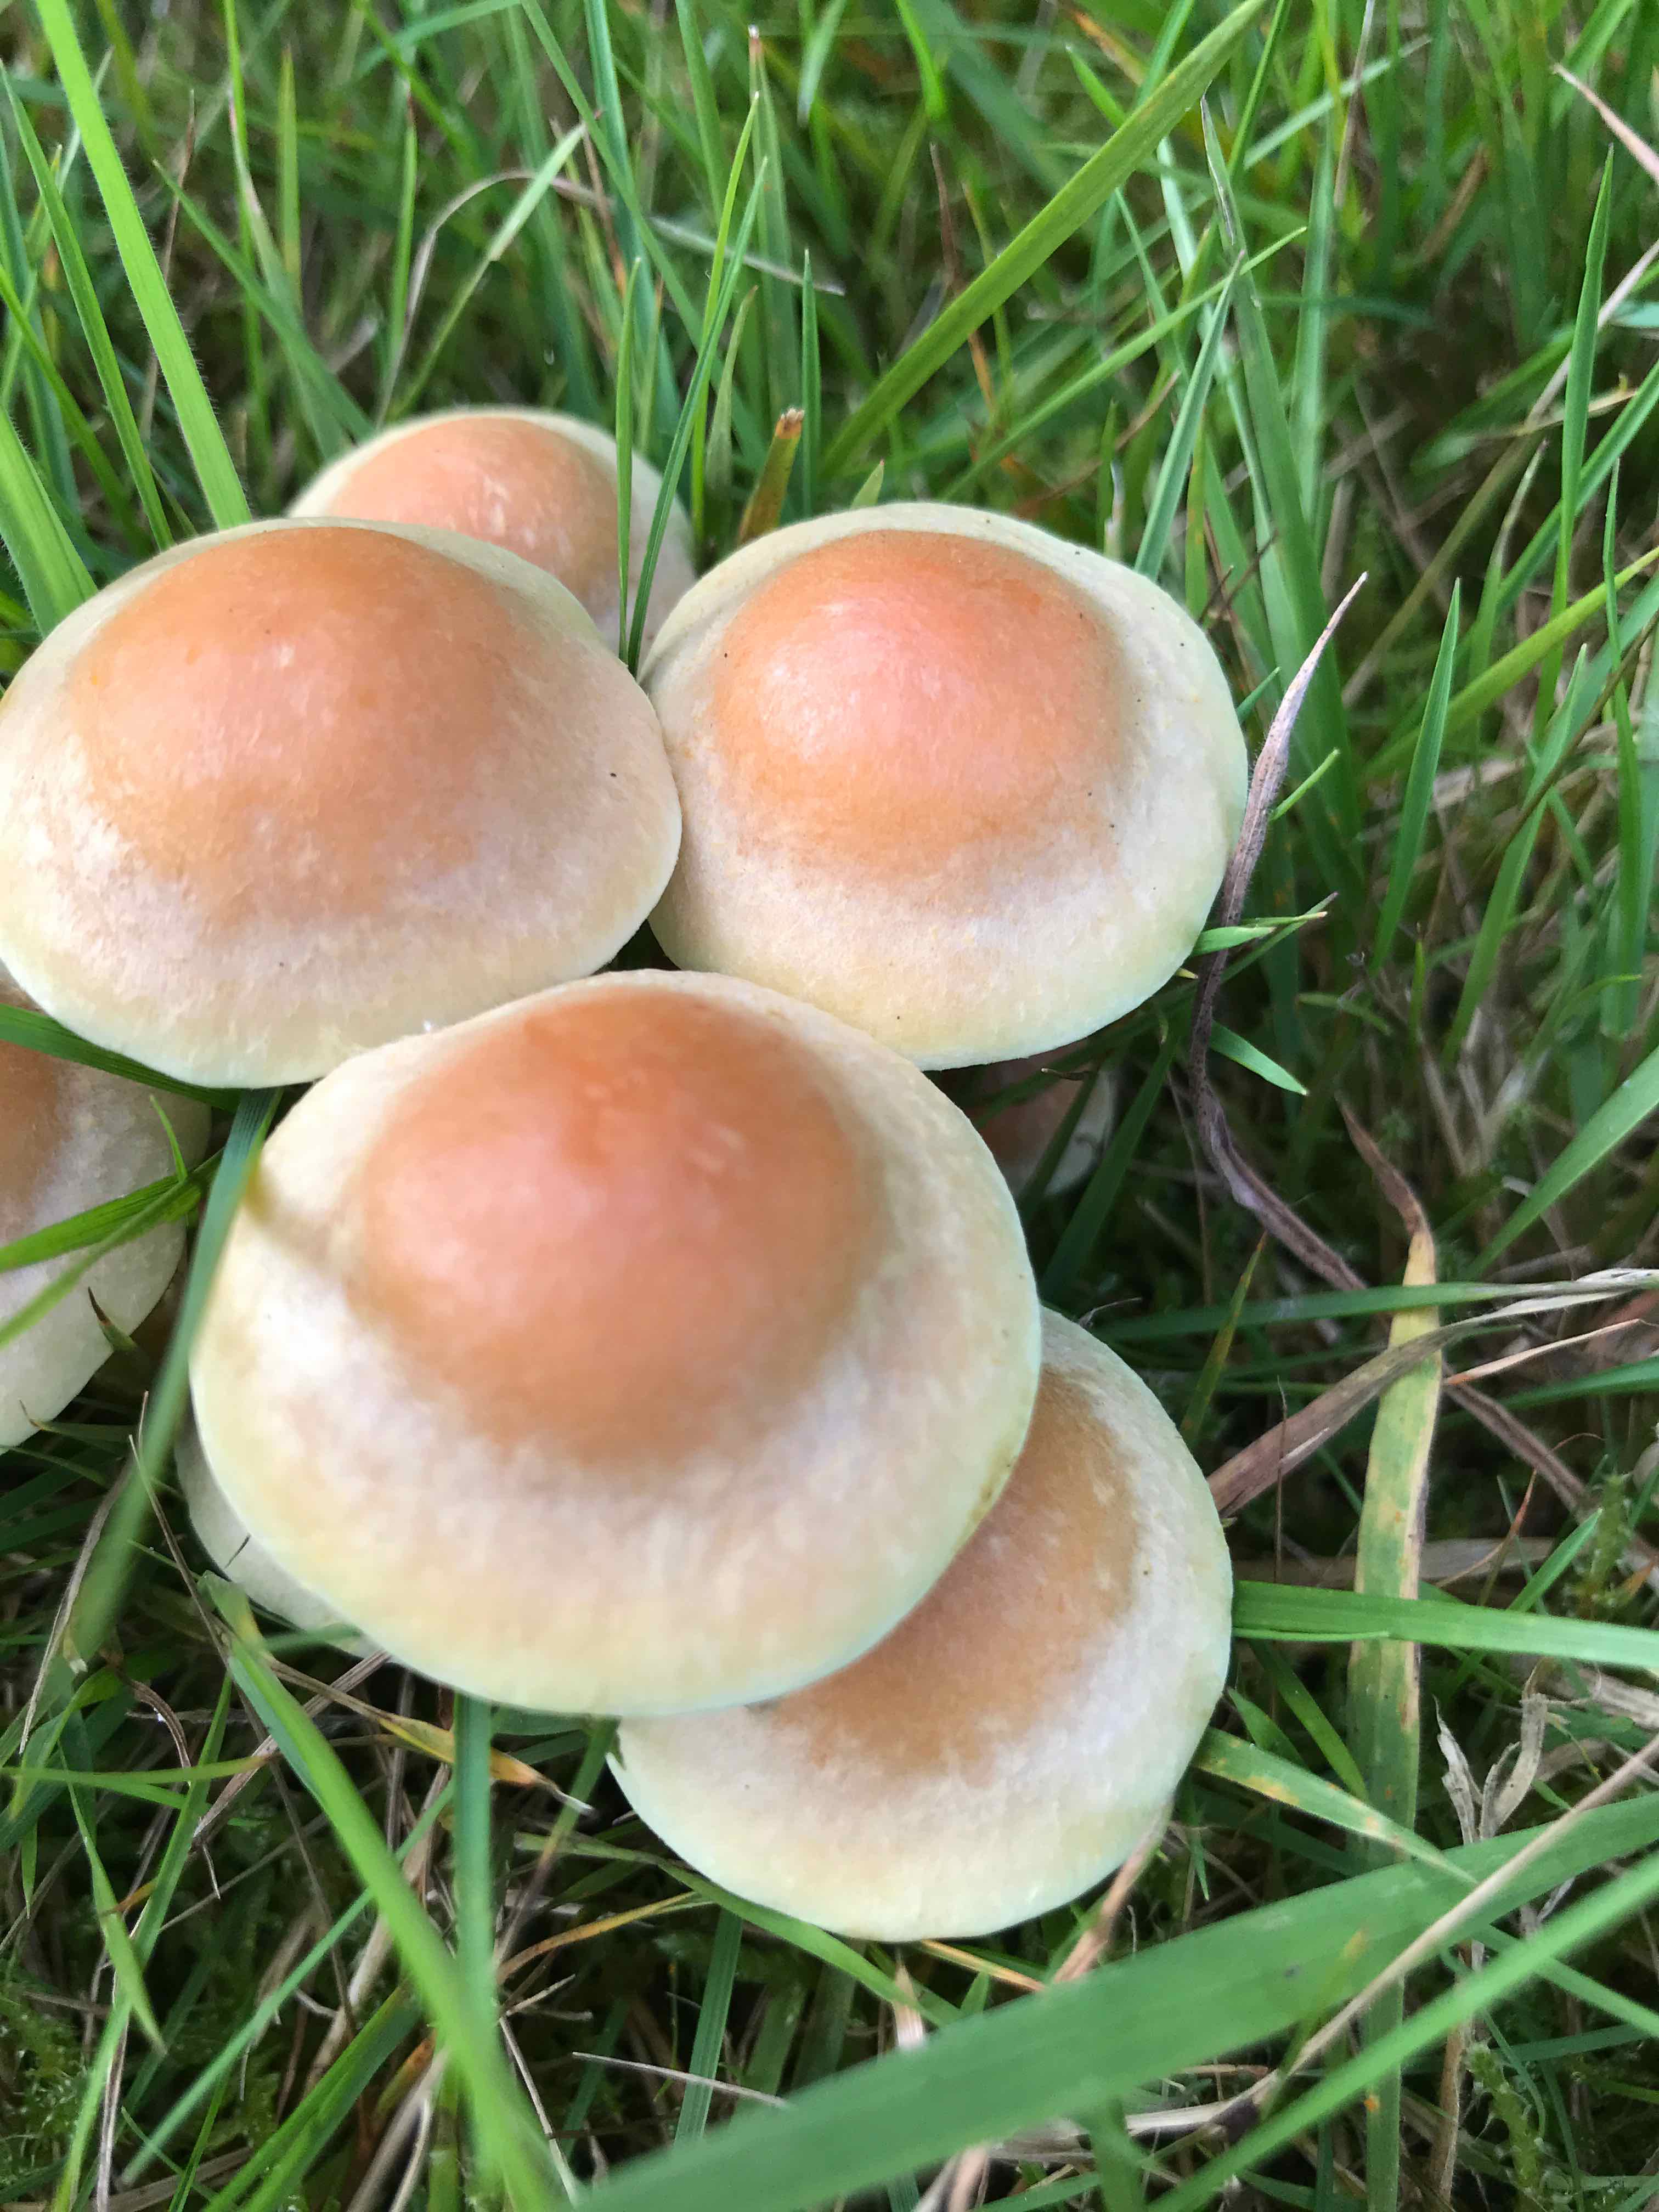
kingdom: Fungi
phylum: Basidiomycota
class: Agaricomycetes
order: Agaricales
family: Strophariaceae
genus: Hypholoma
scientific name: Hypholoma fasciculare
